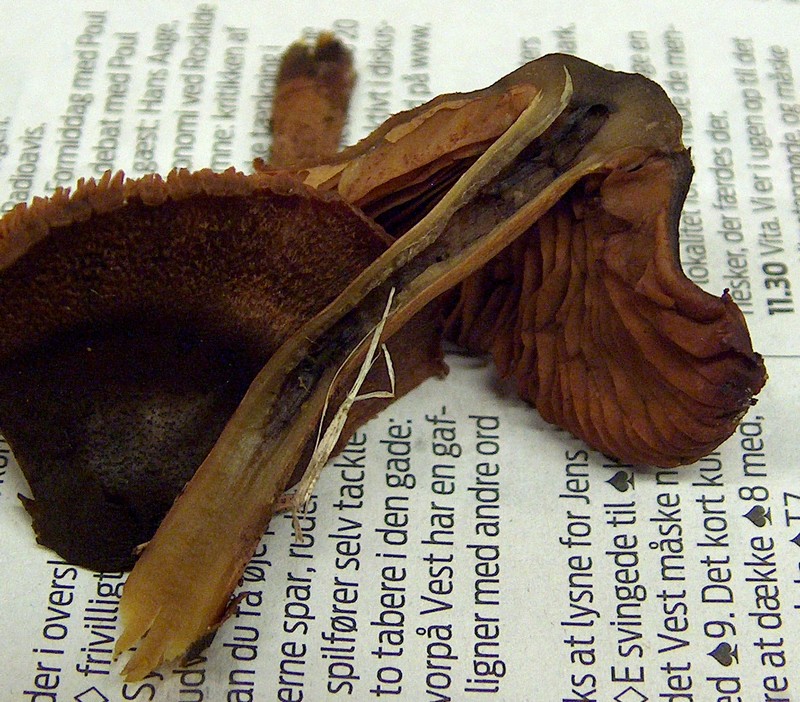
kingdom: Fungi
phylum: Basidiomycota
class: Agaricomycetes
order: Agaricales
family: Cortinariaceae
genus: Cortinarius
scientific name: Cortinarius malicorius
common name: grønkødet slørhat
